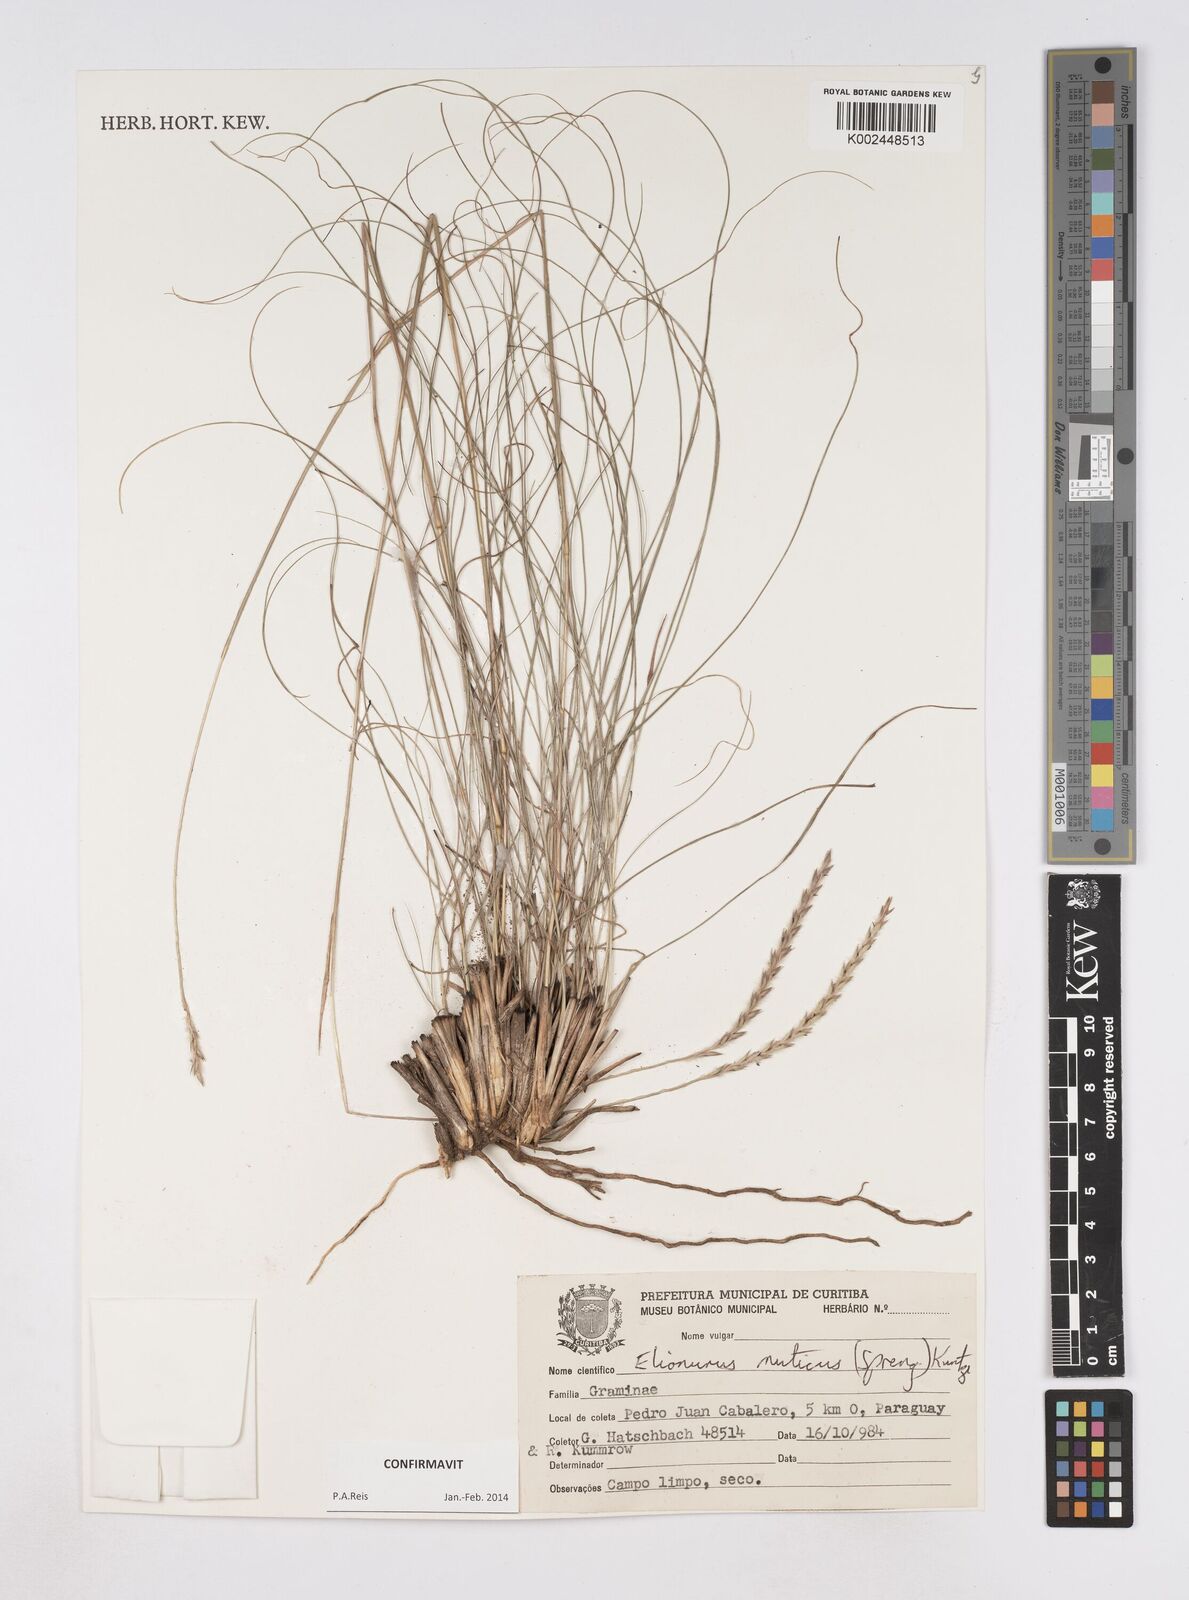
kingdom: Plantae
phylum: Tracheophyta
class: Liliopsida
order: Poales
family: Poaceae
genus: Elionurus
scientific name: Elionurus muticus
